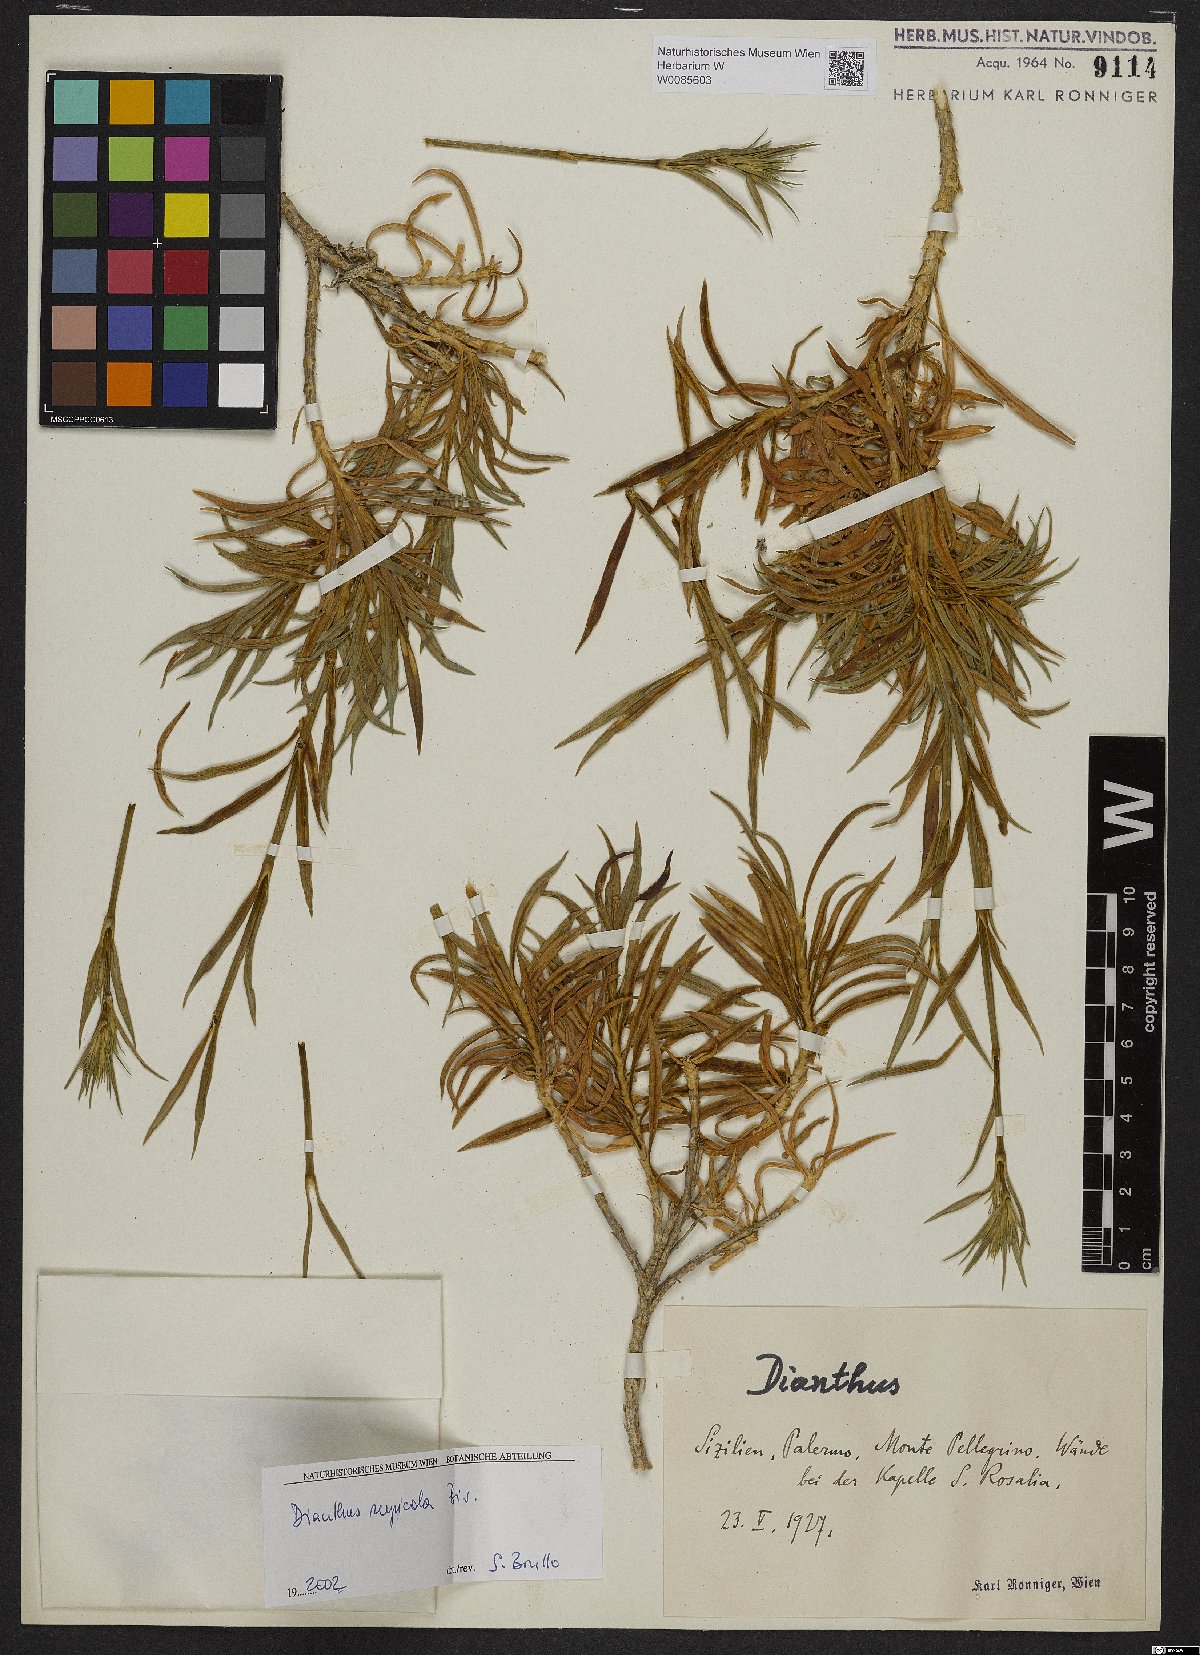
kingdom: Plantae
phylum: Tracheophyta
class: Magnoliopsida
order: Caryophyllales
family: Caryophyllaceae
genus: Dianthus
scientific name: Dianthus rupicola
